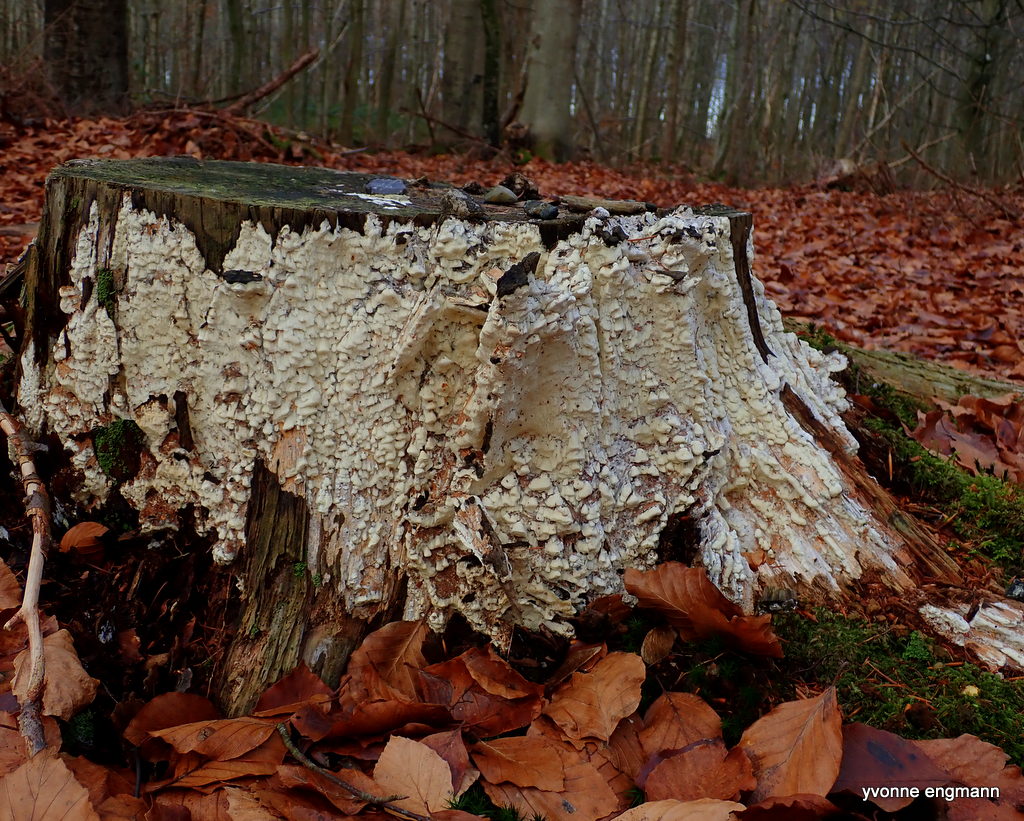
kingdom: Fungi
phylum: Basidiomycota
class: Agaricomycetes
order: Polyporales
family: Fomitopsidaceae
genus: Daedalea
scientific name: Daedalea xantha
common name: gul sejporesvamp
